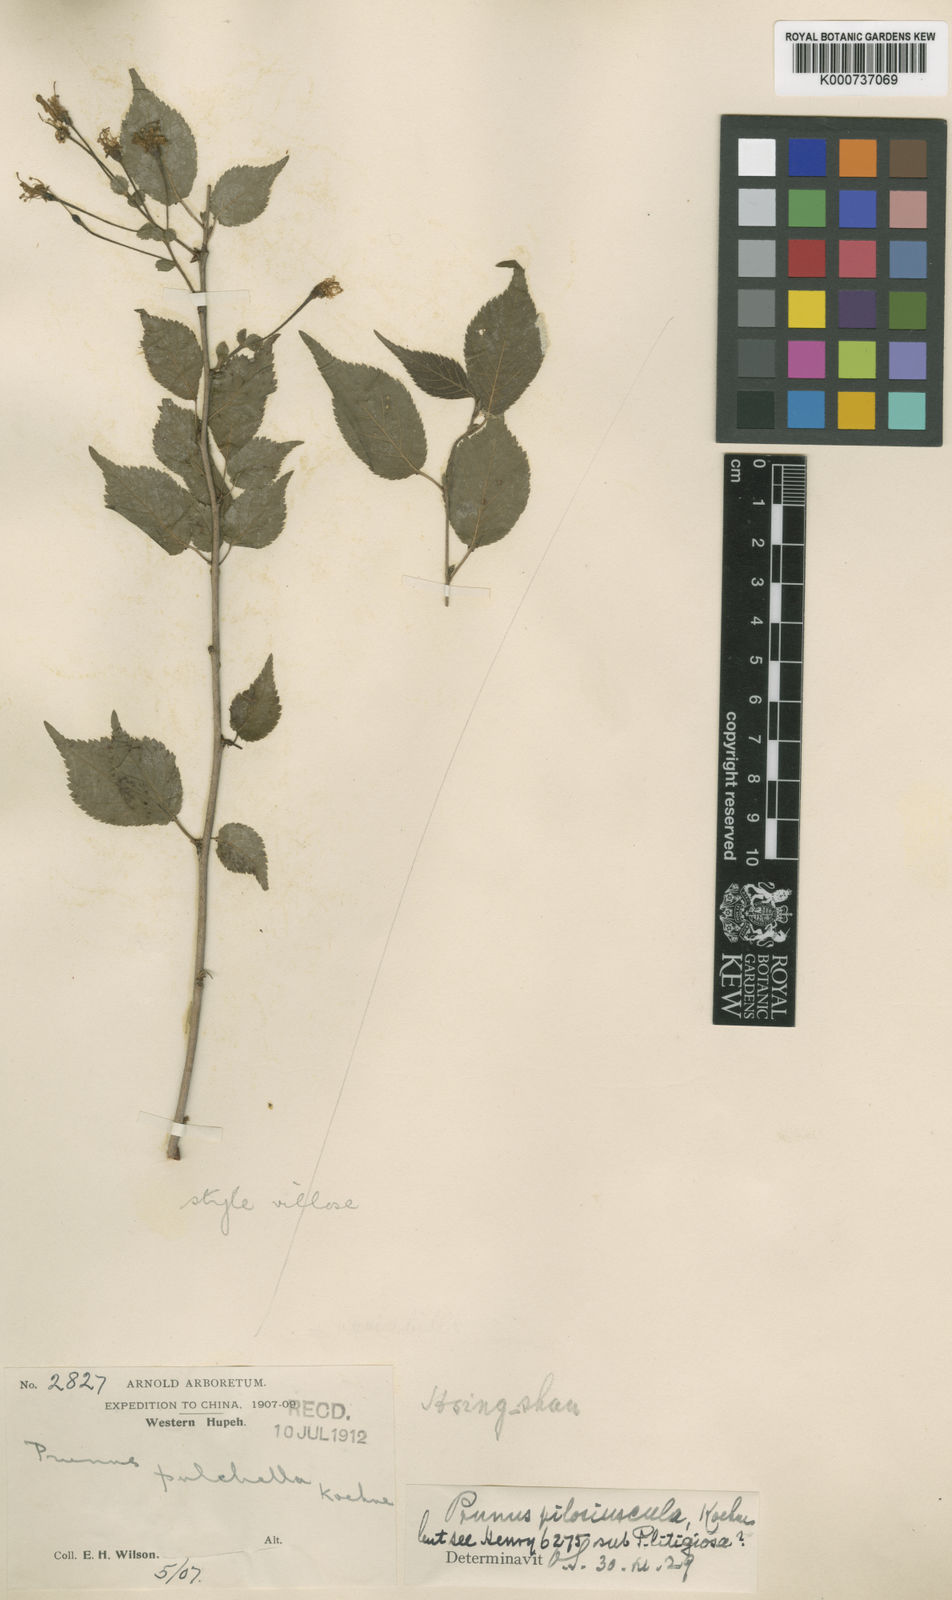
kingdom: Plantae
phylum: Tracheophyta
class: Magnoliopsida
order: Rosales
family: Rosaceae
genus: Prunus
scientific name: Prunus maximowiczii
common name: Korean cherry
